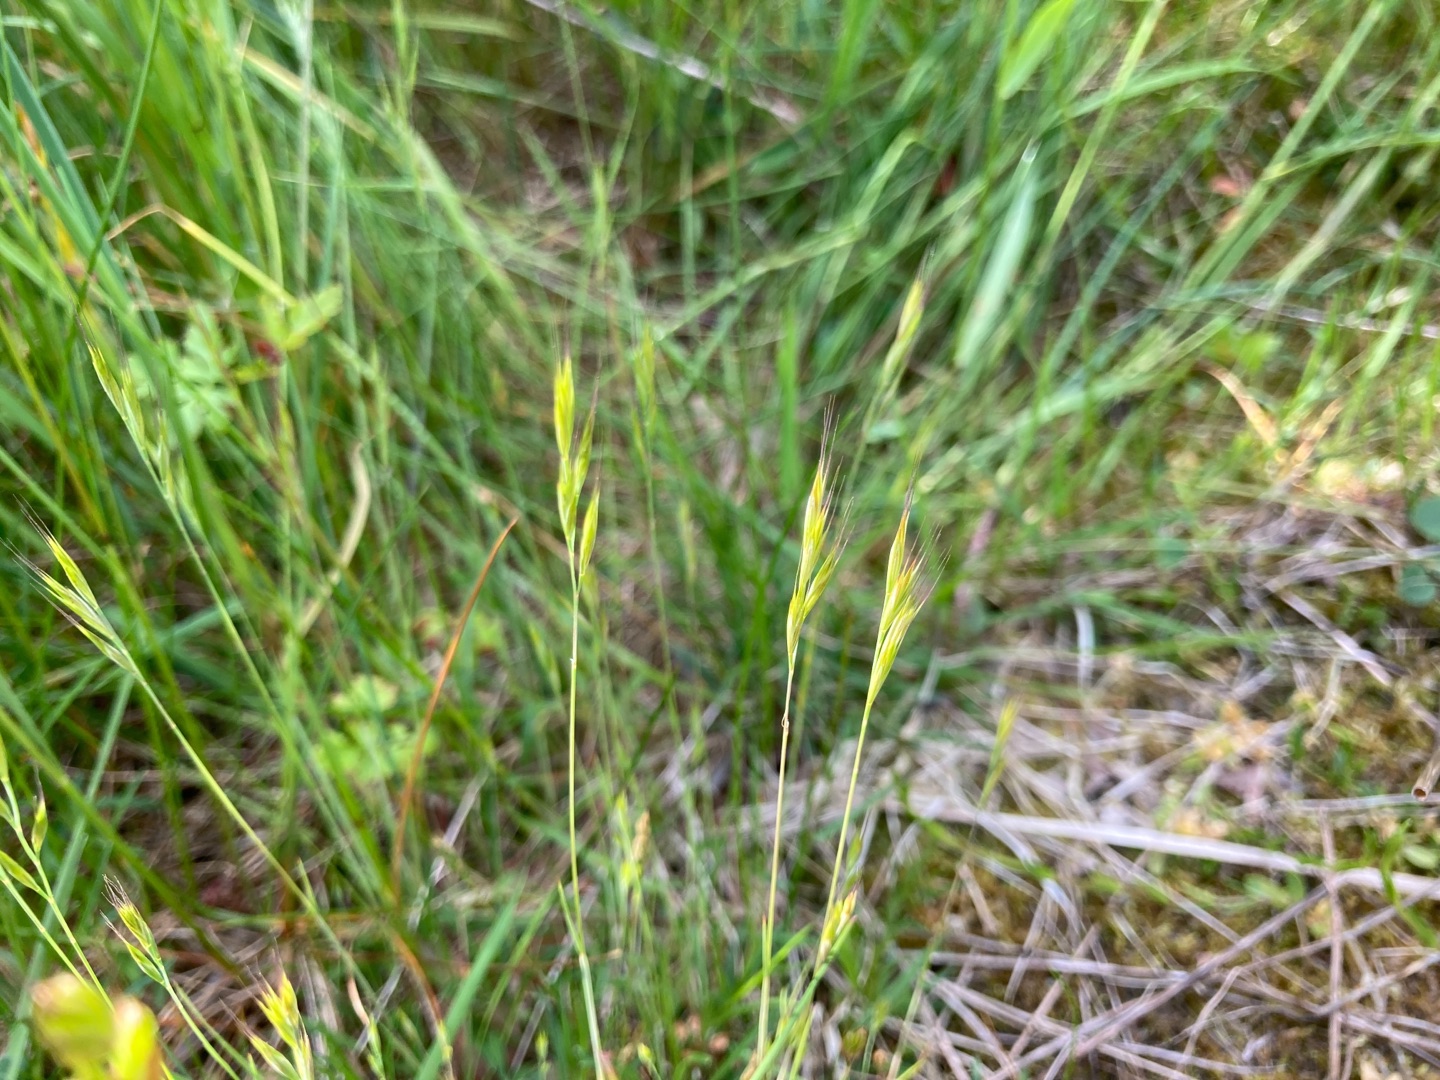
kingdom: Plantae
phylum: Tracheophyta
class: Liliopsida
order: Poales
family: Poaceae
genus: Festuca
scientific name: Festuca bromoides
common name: Langstakket væselhale
